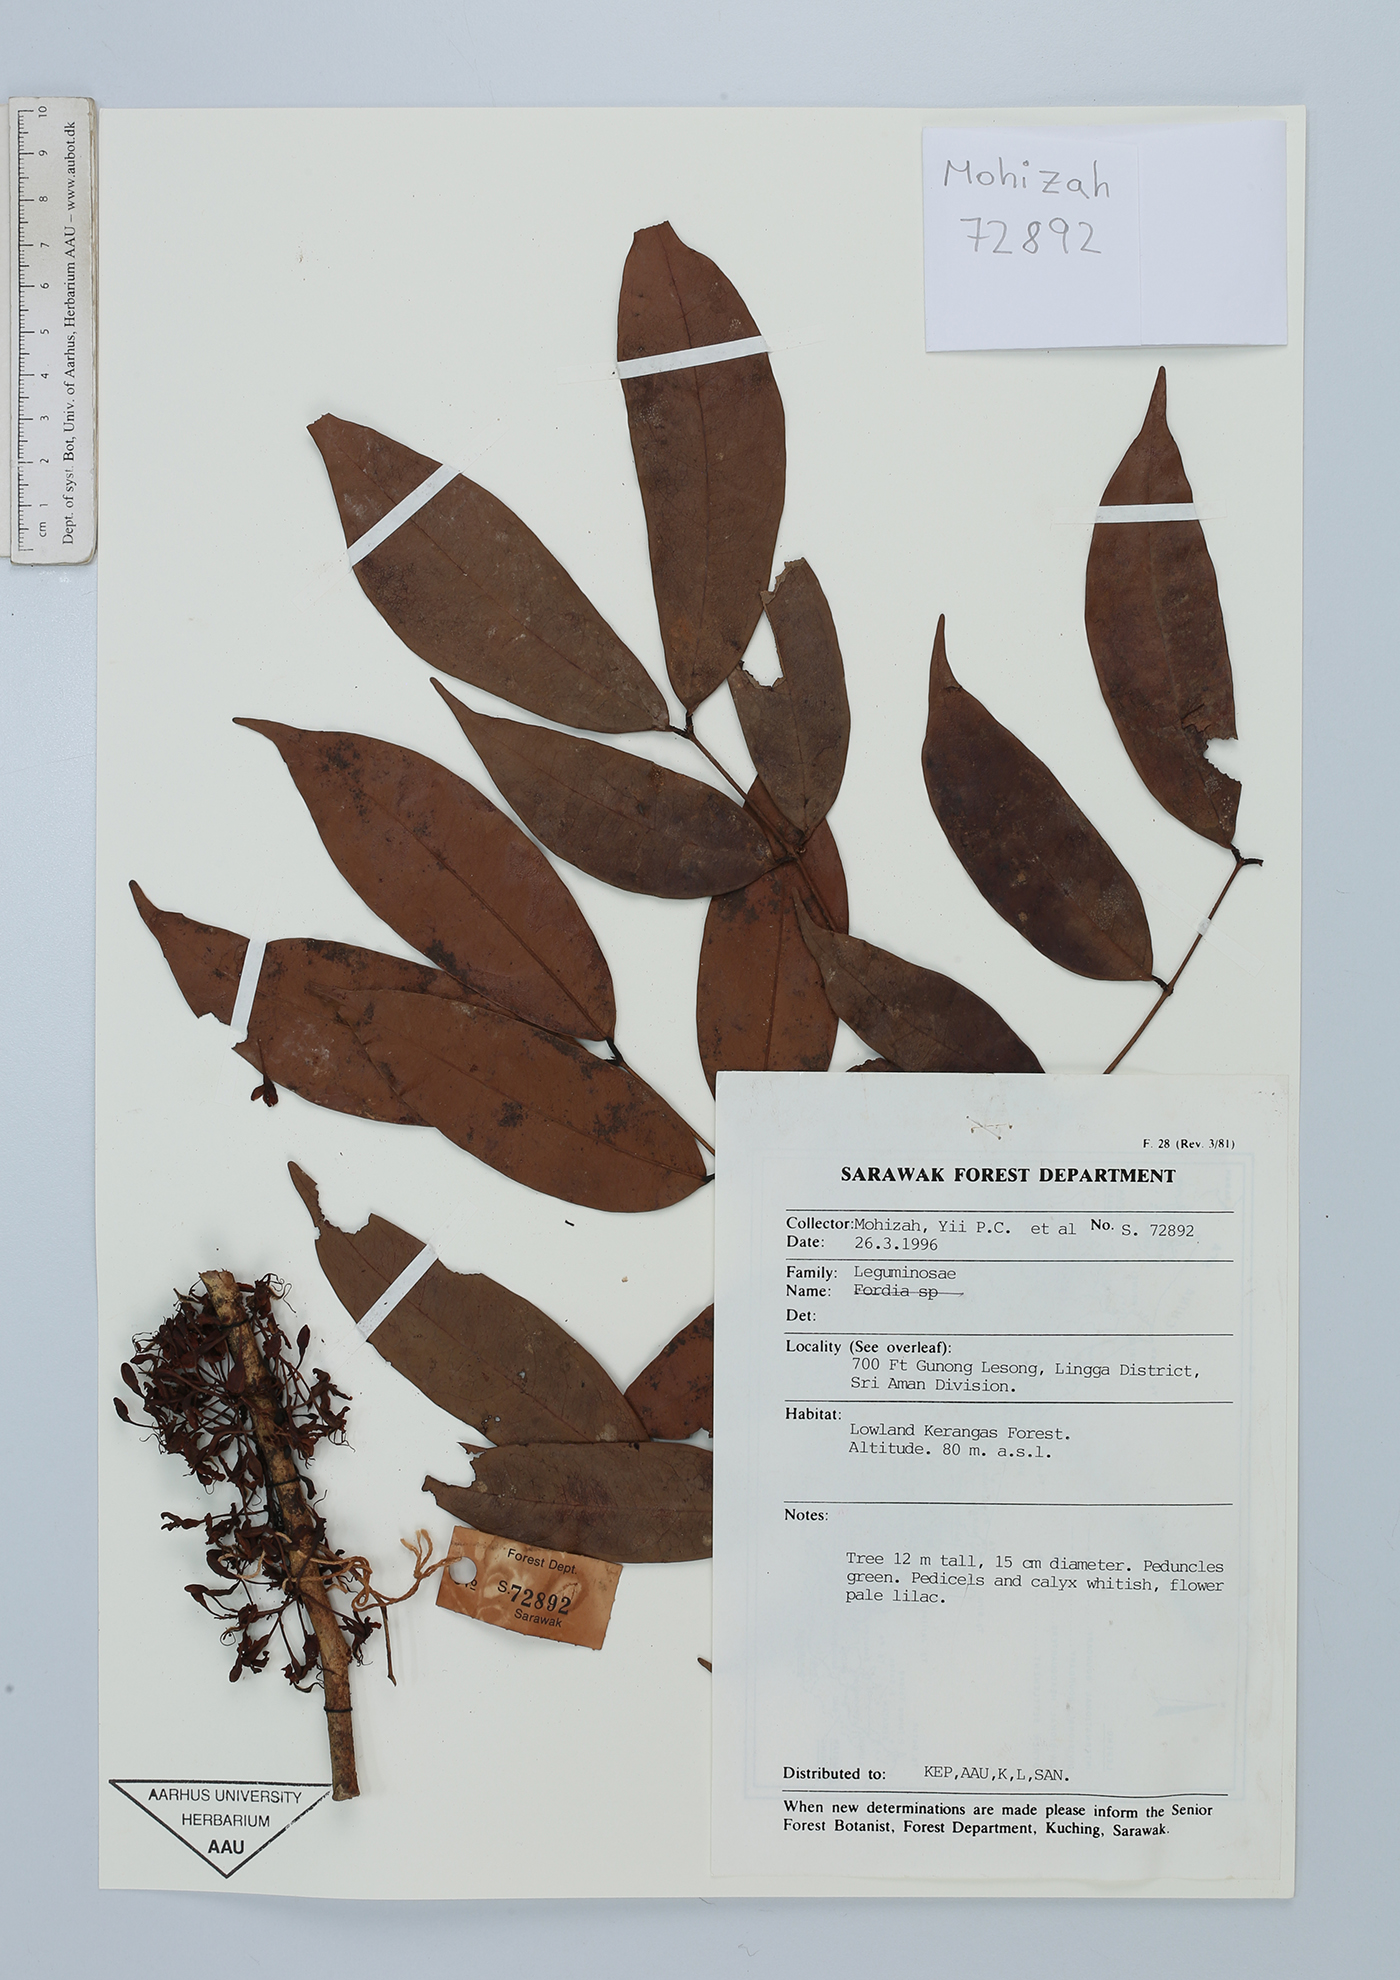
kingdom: Plantae
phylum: Tracheophyta
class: Magnoliopsida
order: Fabales
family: Fabaceae
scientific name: Fabaceae
